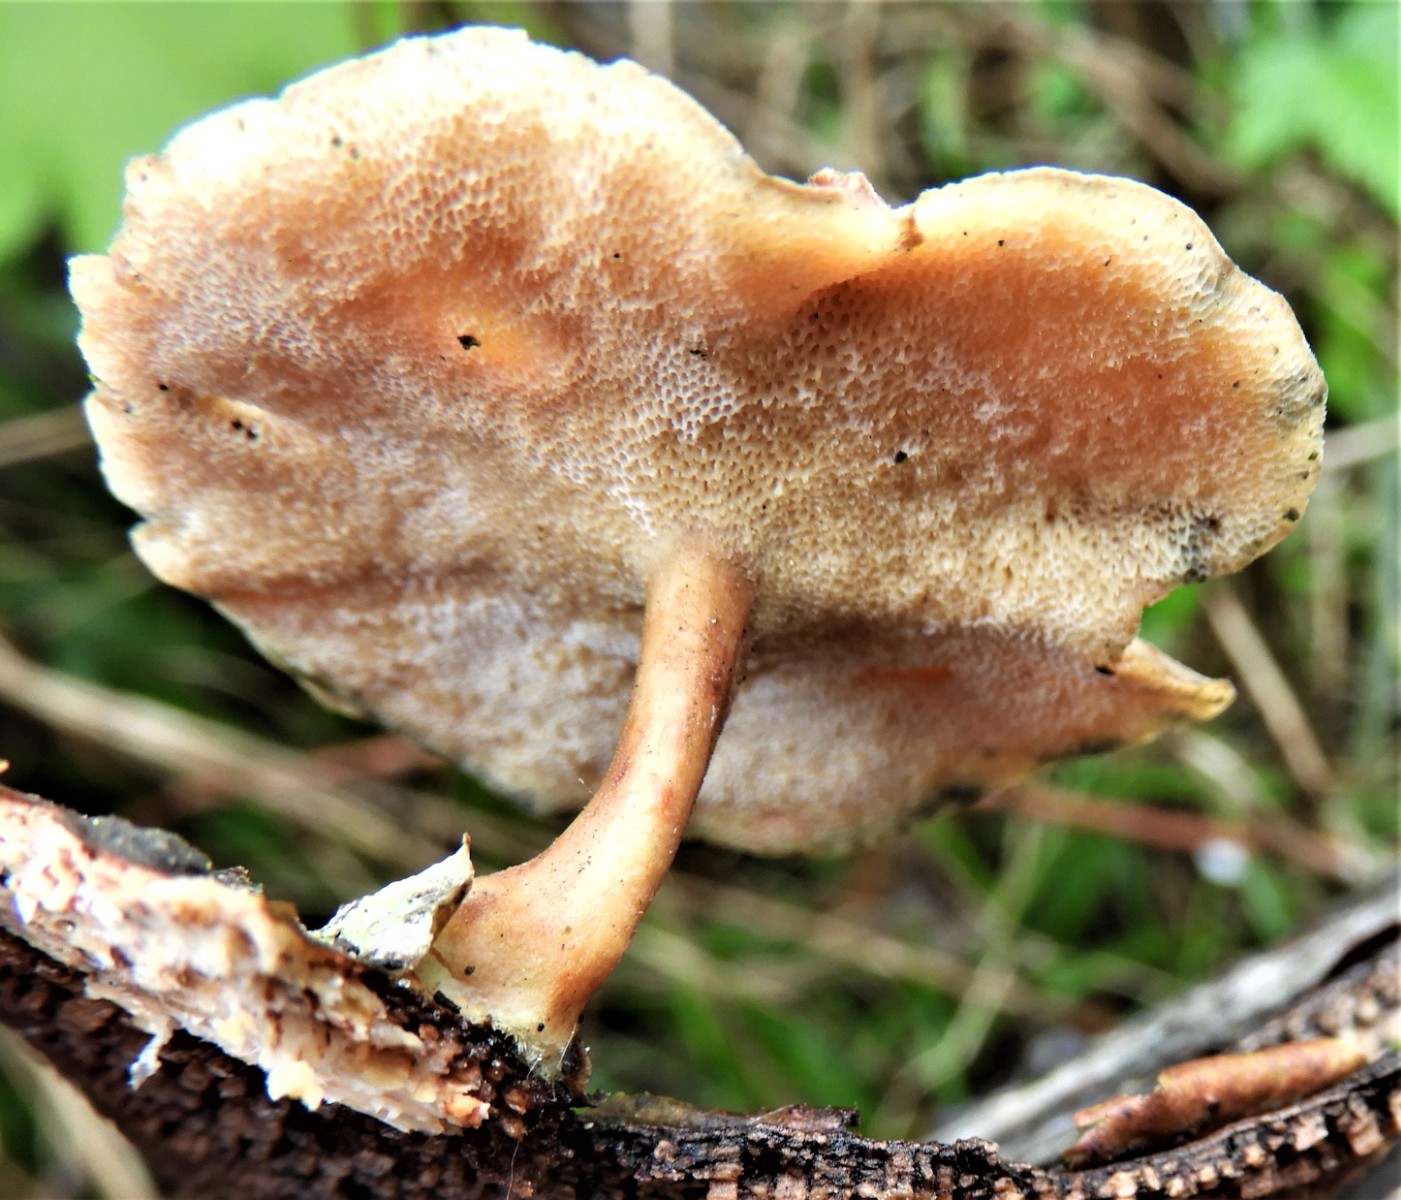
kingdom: Fungi
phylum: Basidiomycota
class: Agaricomycetes
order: Polyporales
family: Polyporaceae
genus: Lentinus
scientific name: Lentinus brumalis
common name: vinter-stilkporesvamp
